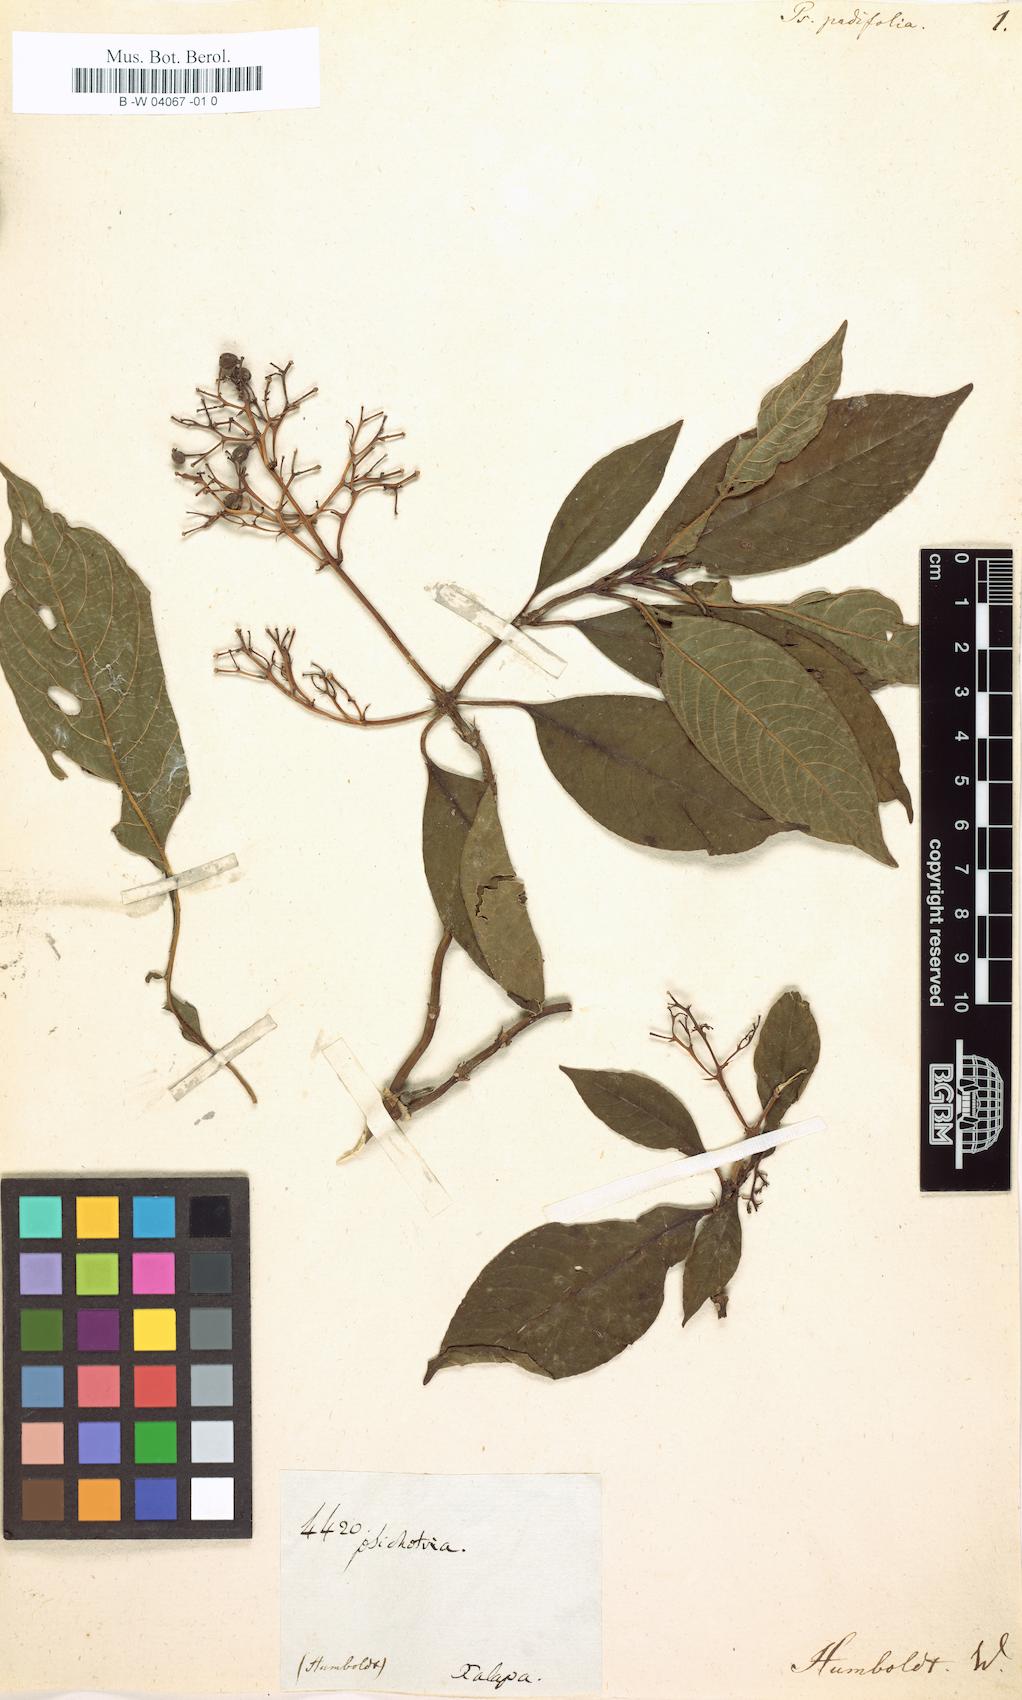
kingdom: Plantae
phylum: Tracheophyta
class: Magnoliopsida
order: Gentianales
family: Rubiaceae
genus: Palicourea
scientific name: Palicourea padifolia
